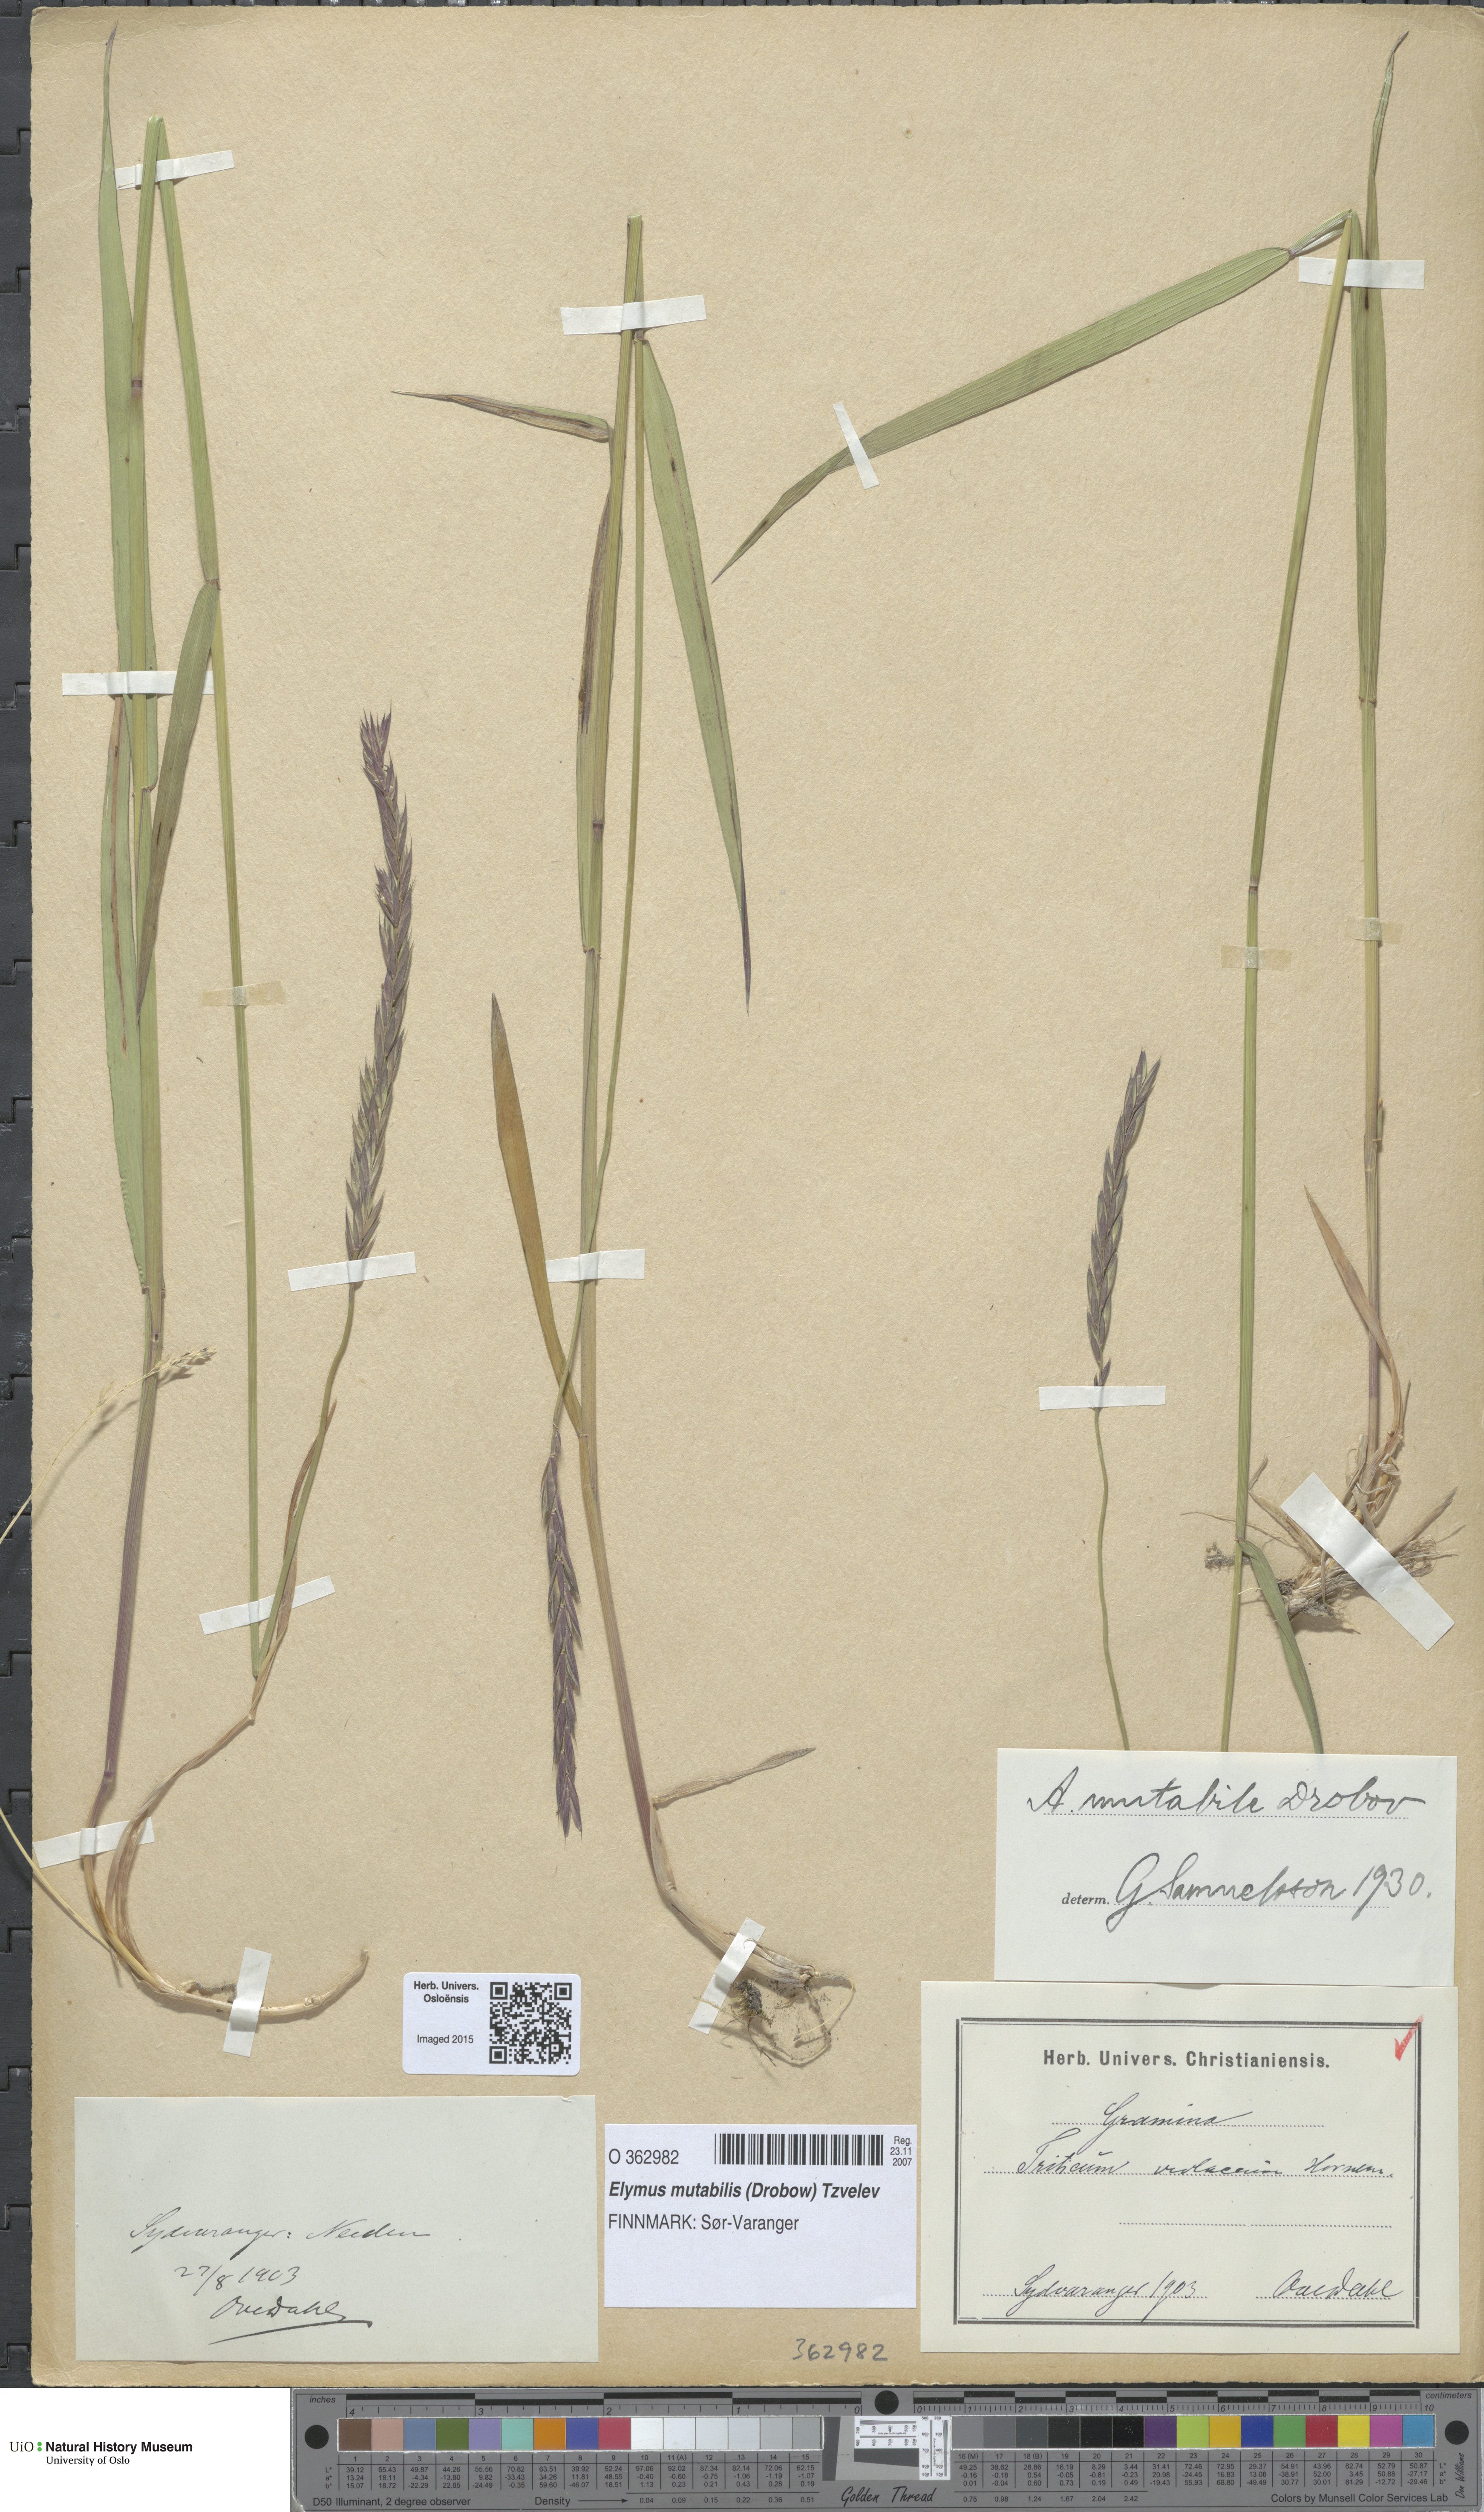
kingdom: Plantae
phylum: Tracheophyta
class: Liliopsida
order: Poales
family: Poaceae
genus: Elymus
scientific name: Elymus mutabilis
